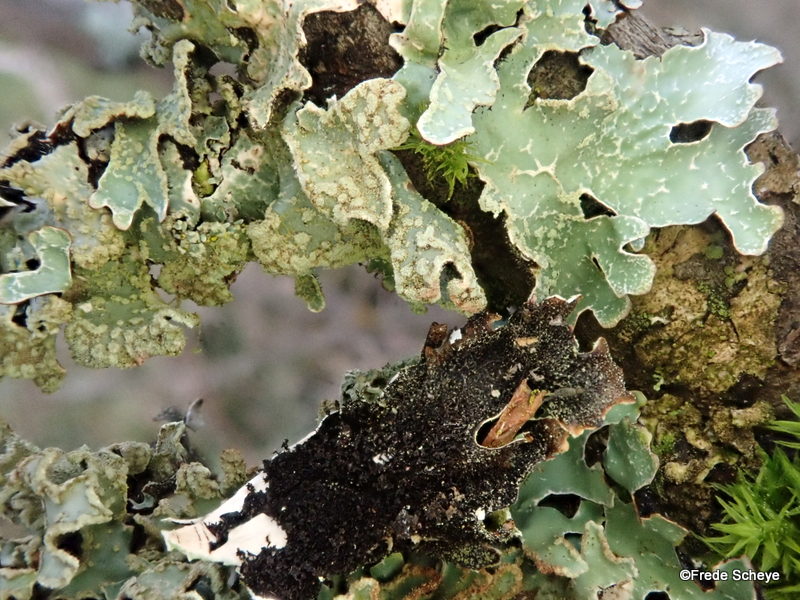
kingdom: Fungi
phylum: Ascomycota
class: Lecanoromycetes
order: Lecanorales
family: Parmeliaceae
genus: Parmelia
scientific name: Parmelia sulcata
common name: rynket skållav
